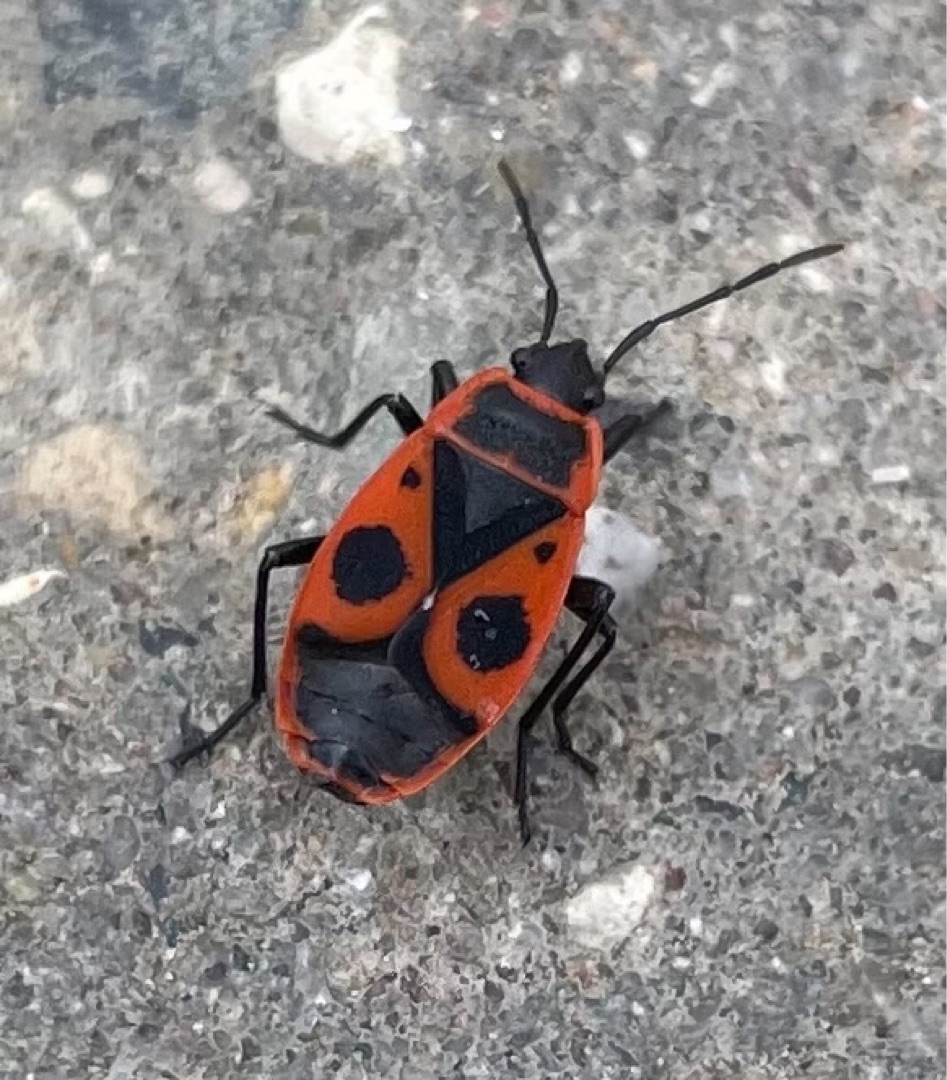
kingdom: Animalia
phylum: Arthropoda
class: Insecta
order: Hemiptera
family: Pyrrhocoridae
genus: Pyrrhocoris
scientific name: Pyrrhocoris apterus
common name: Ildtæge
